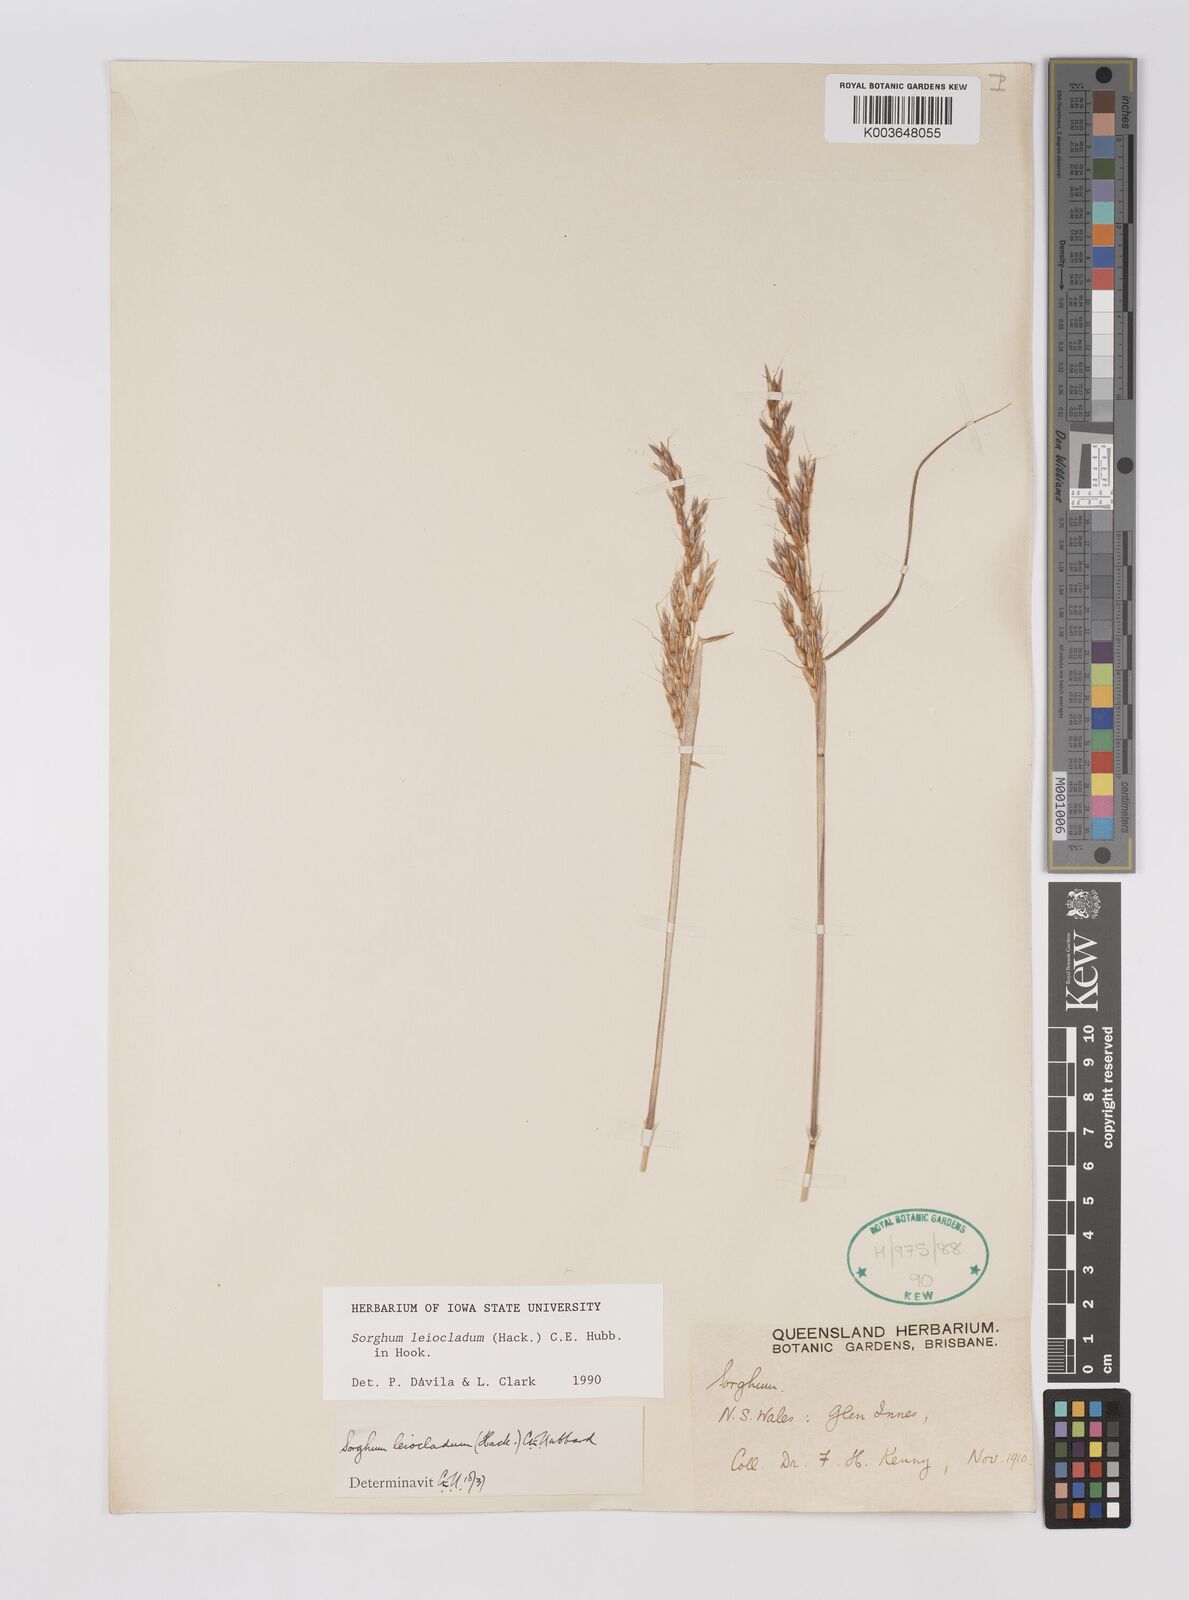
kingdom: Plantae
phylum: Tracheophyta
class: Liliopsida
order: Poales
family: Poaceae
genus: Sarga
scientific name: Sarga leioclada
